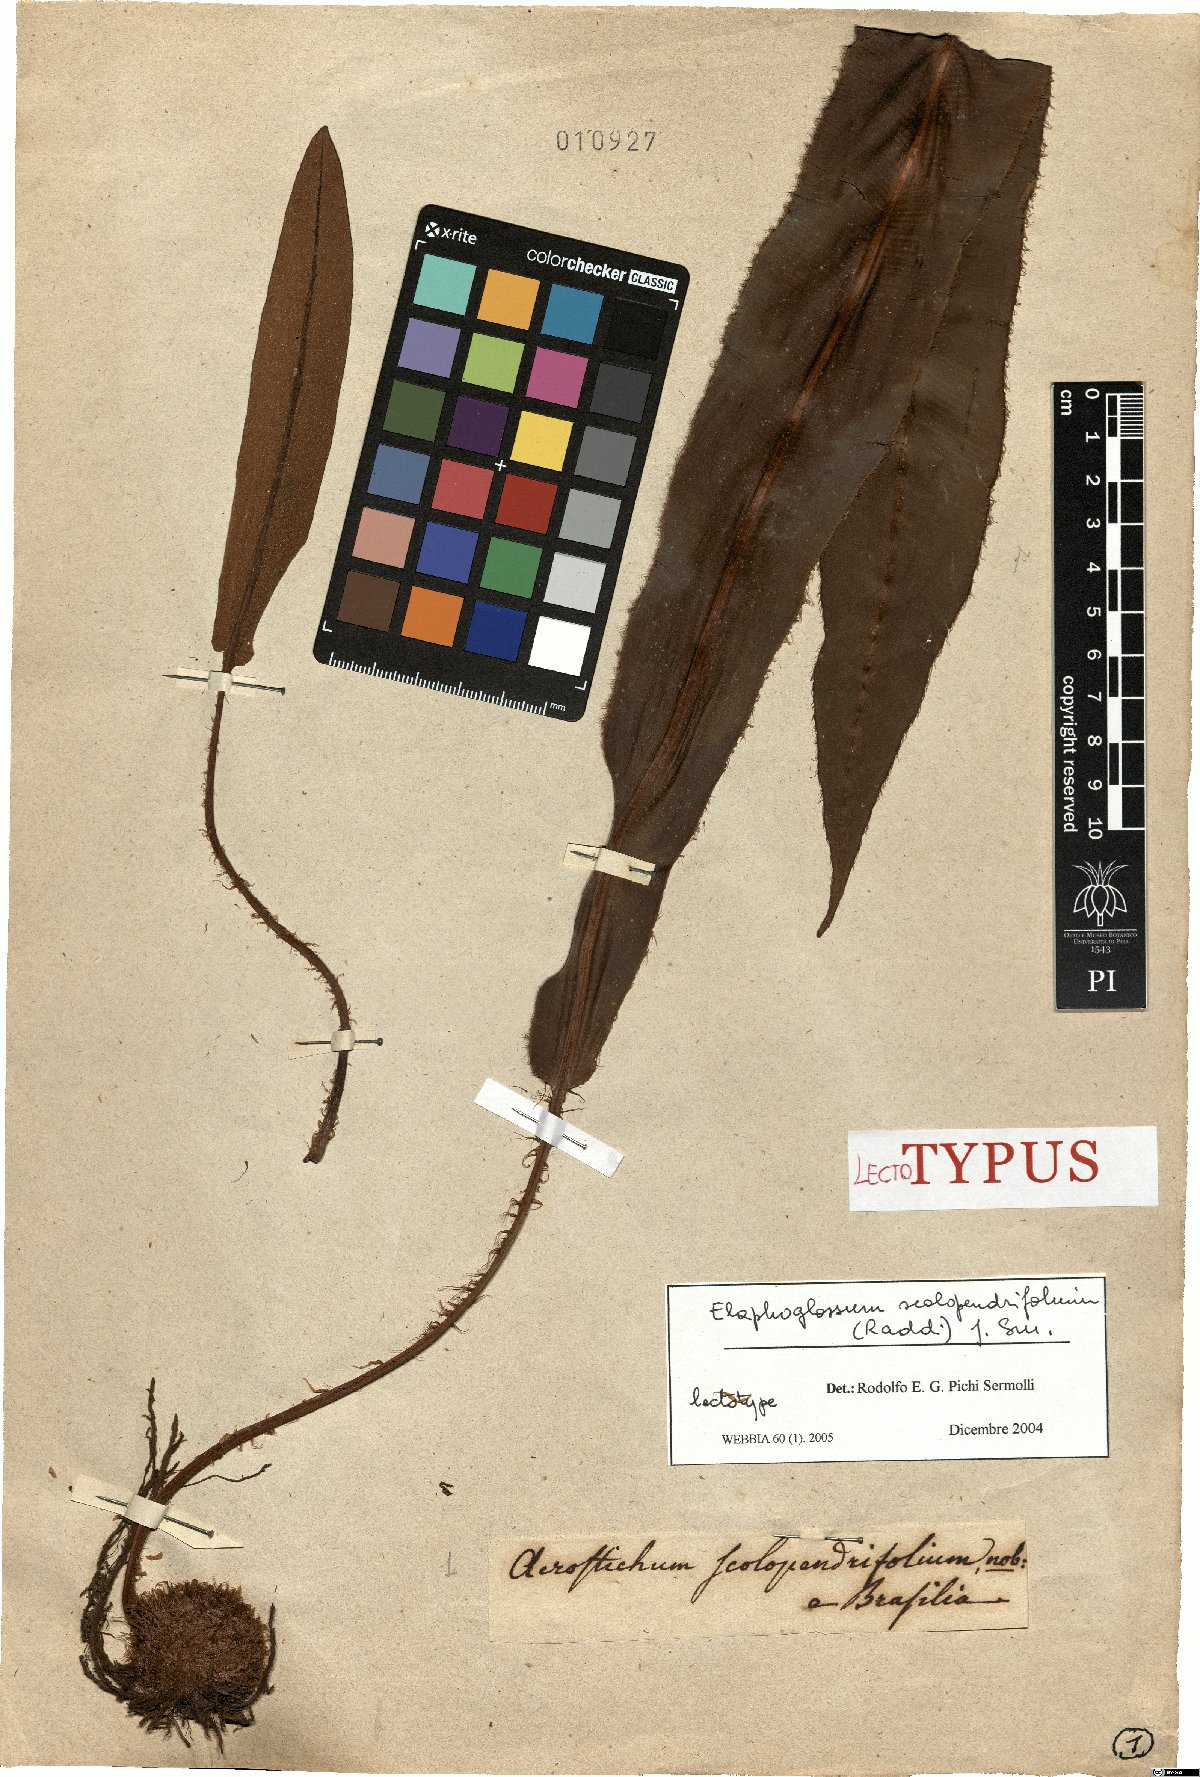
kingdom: Plantae
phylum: Tracheophyta
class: Polypodiopsida
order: Polypodiales
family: Dryopteridaceae
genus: Elaphoglossum
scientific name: Elaphoglossum scolopendrifolium
